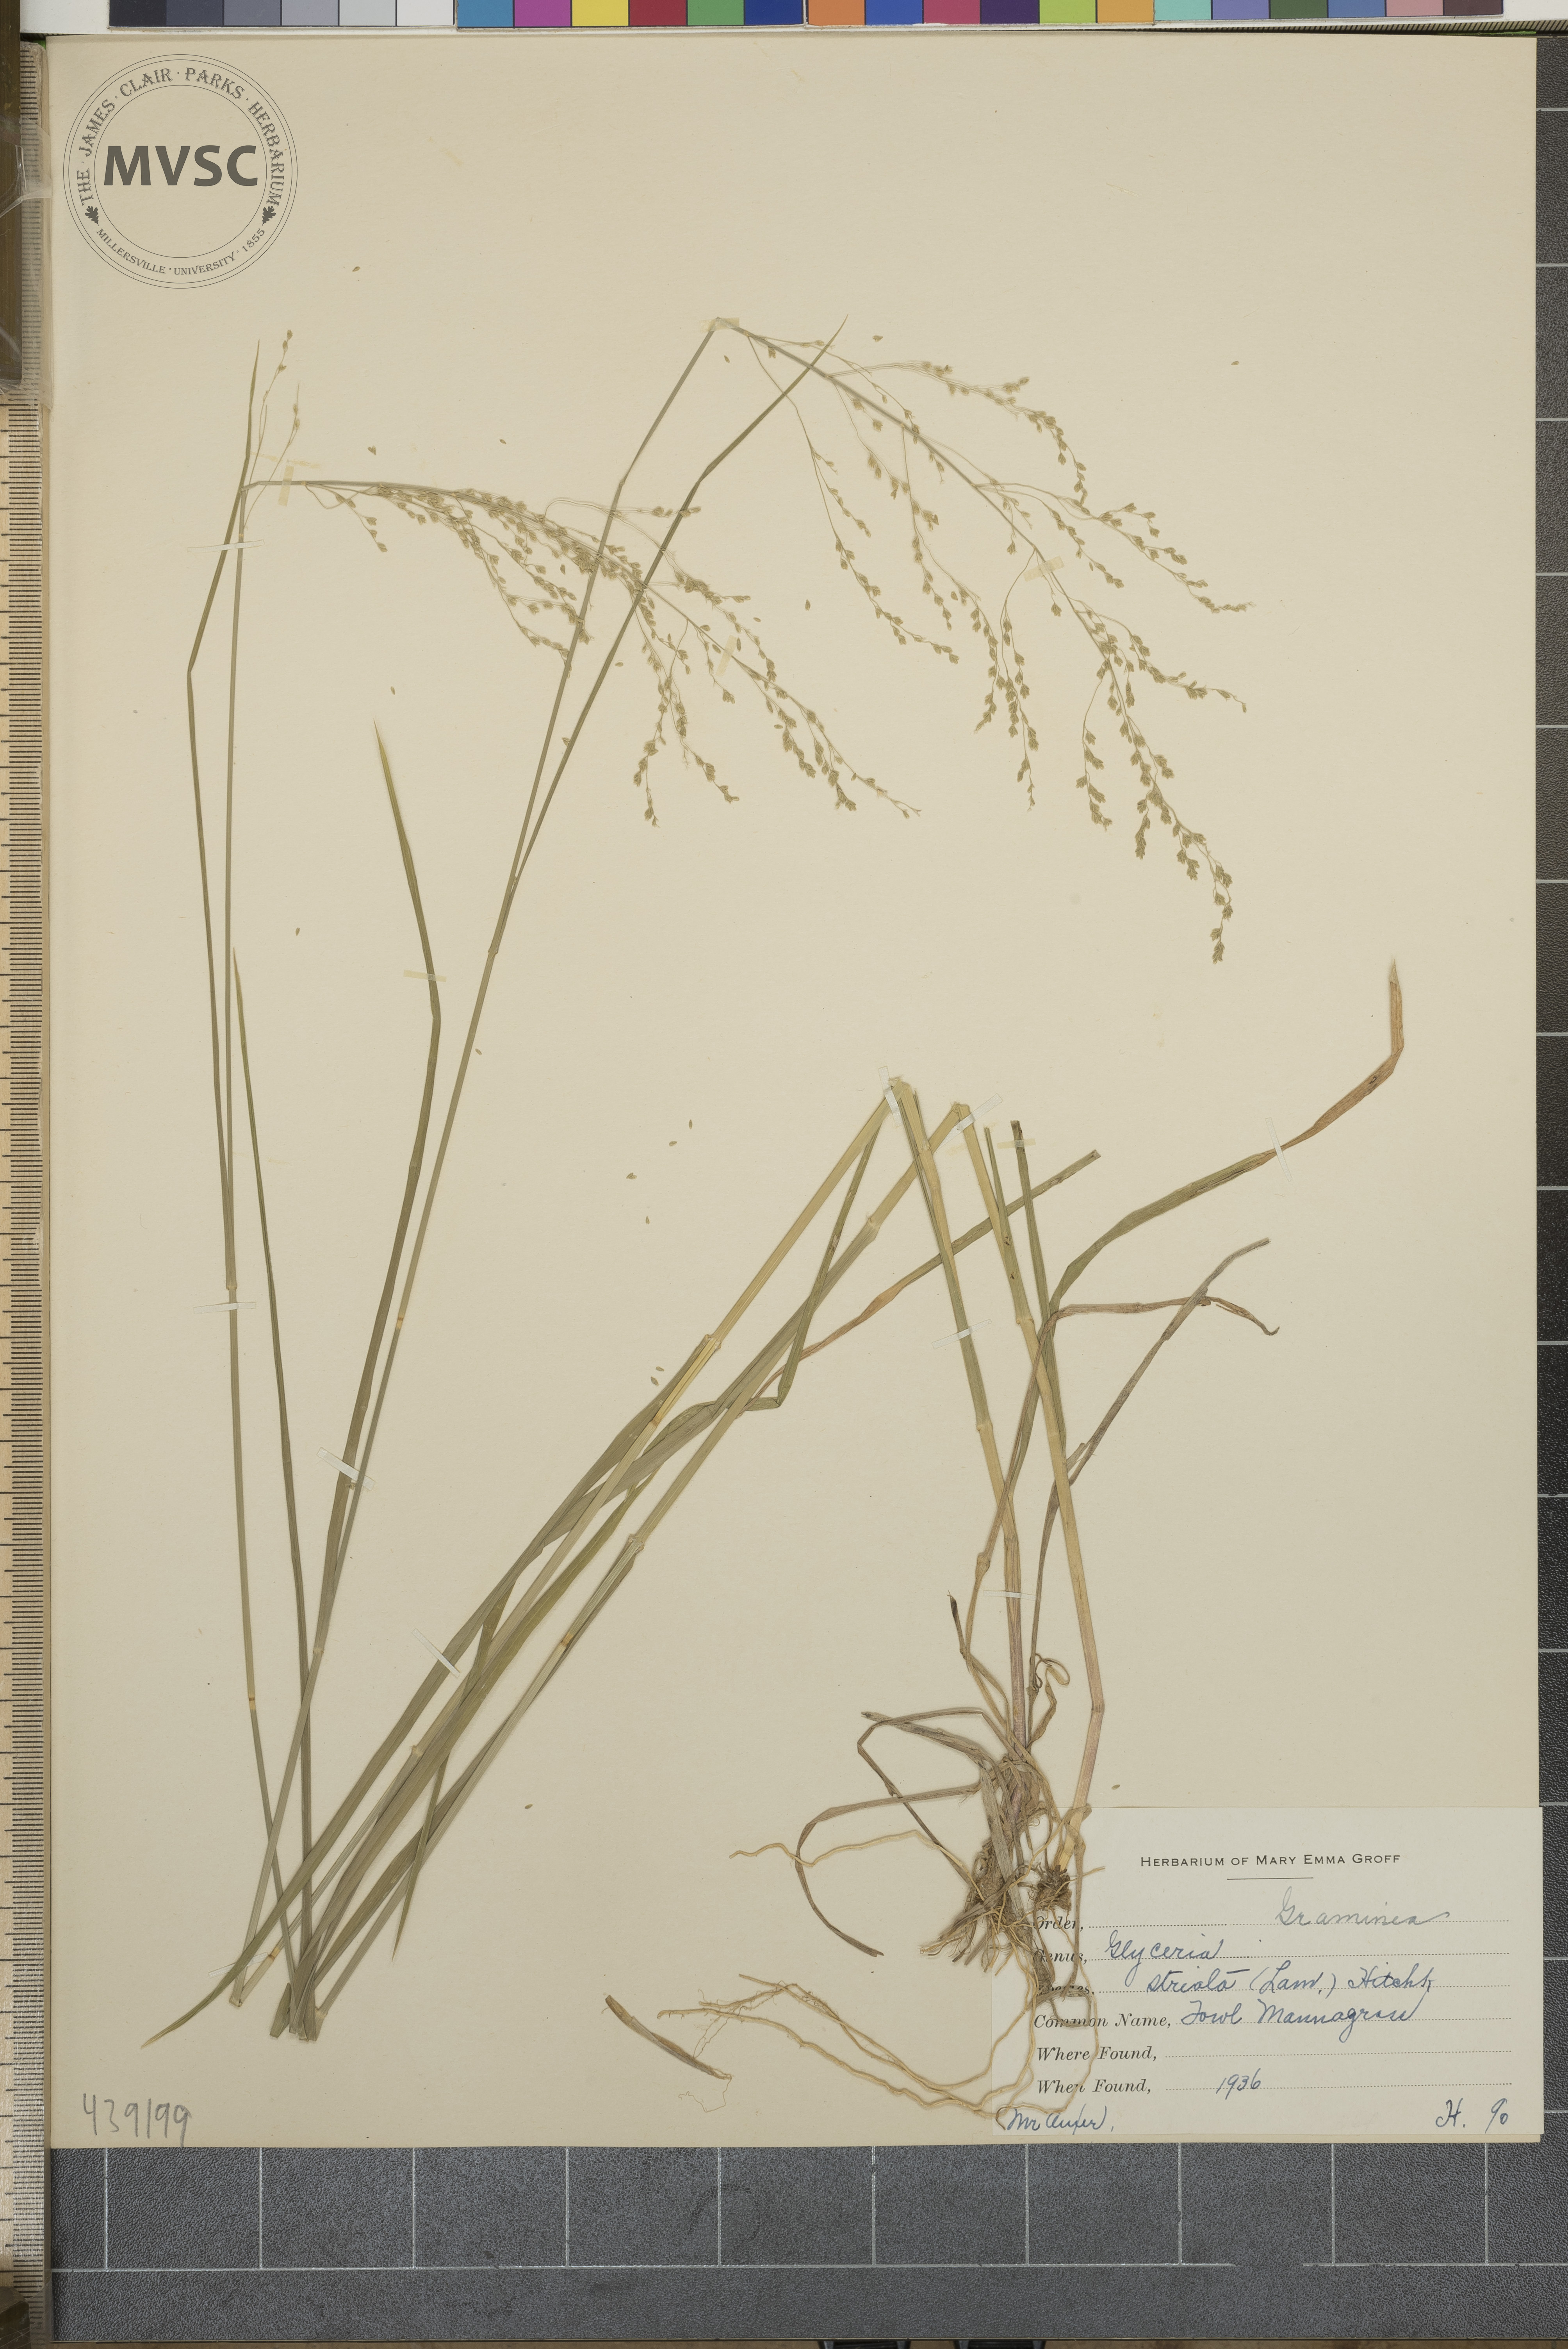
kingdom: Plantae
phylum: Tracheophyta
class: Liliopsida
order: Poales
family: Poaceae
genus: Glyceria
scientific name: Glyceria striata
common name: Fowl mannagrass
